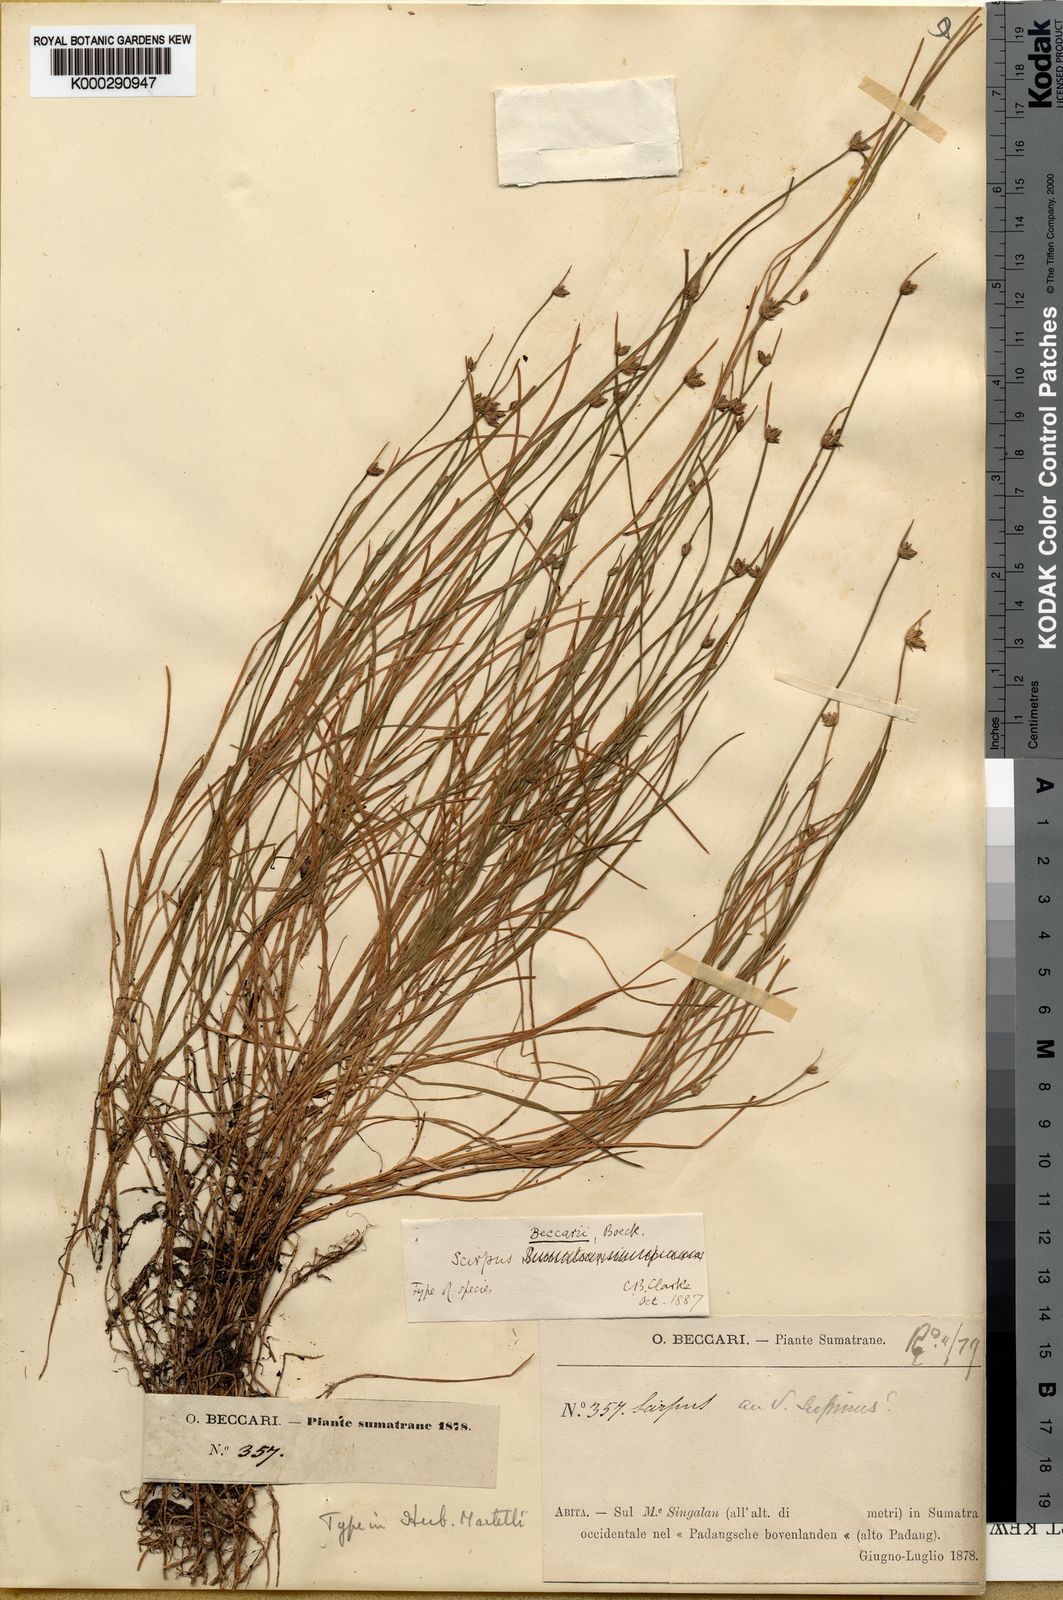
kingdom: Plantae
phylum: Tracheophyta
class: Liliopsida
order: Poales
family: Cyperaceae
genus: Isolepis
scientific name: Isolepis beccarii
